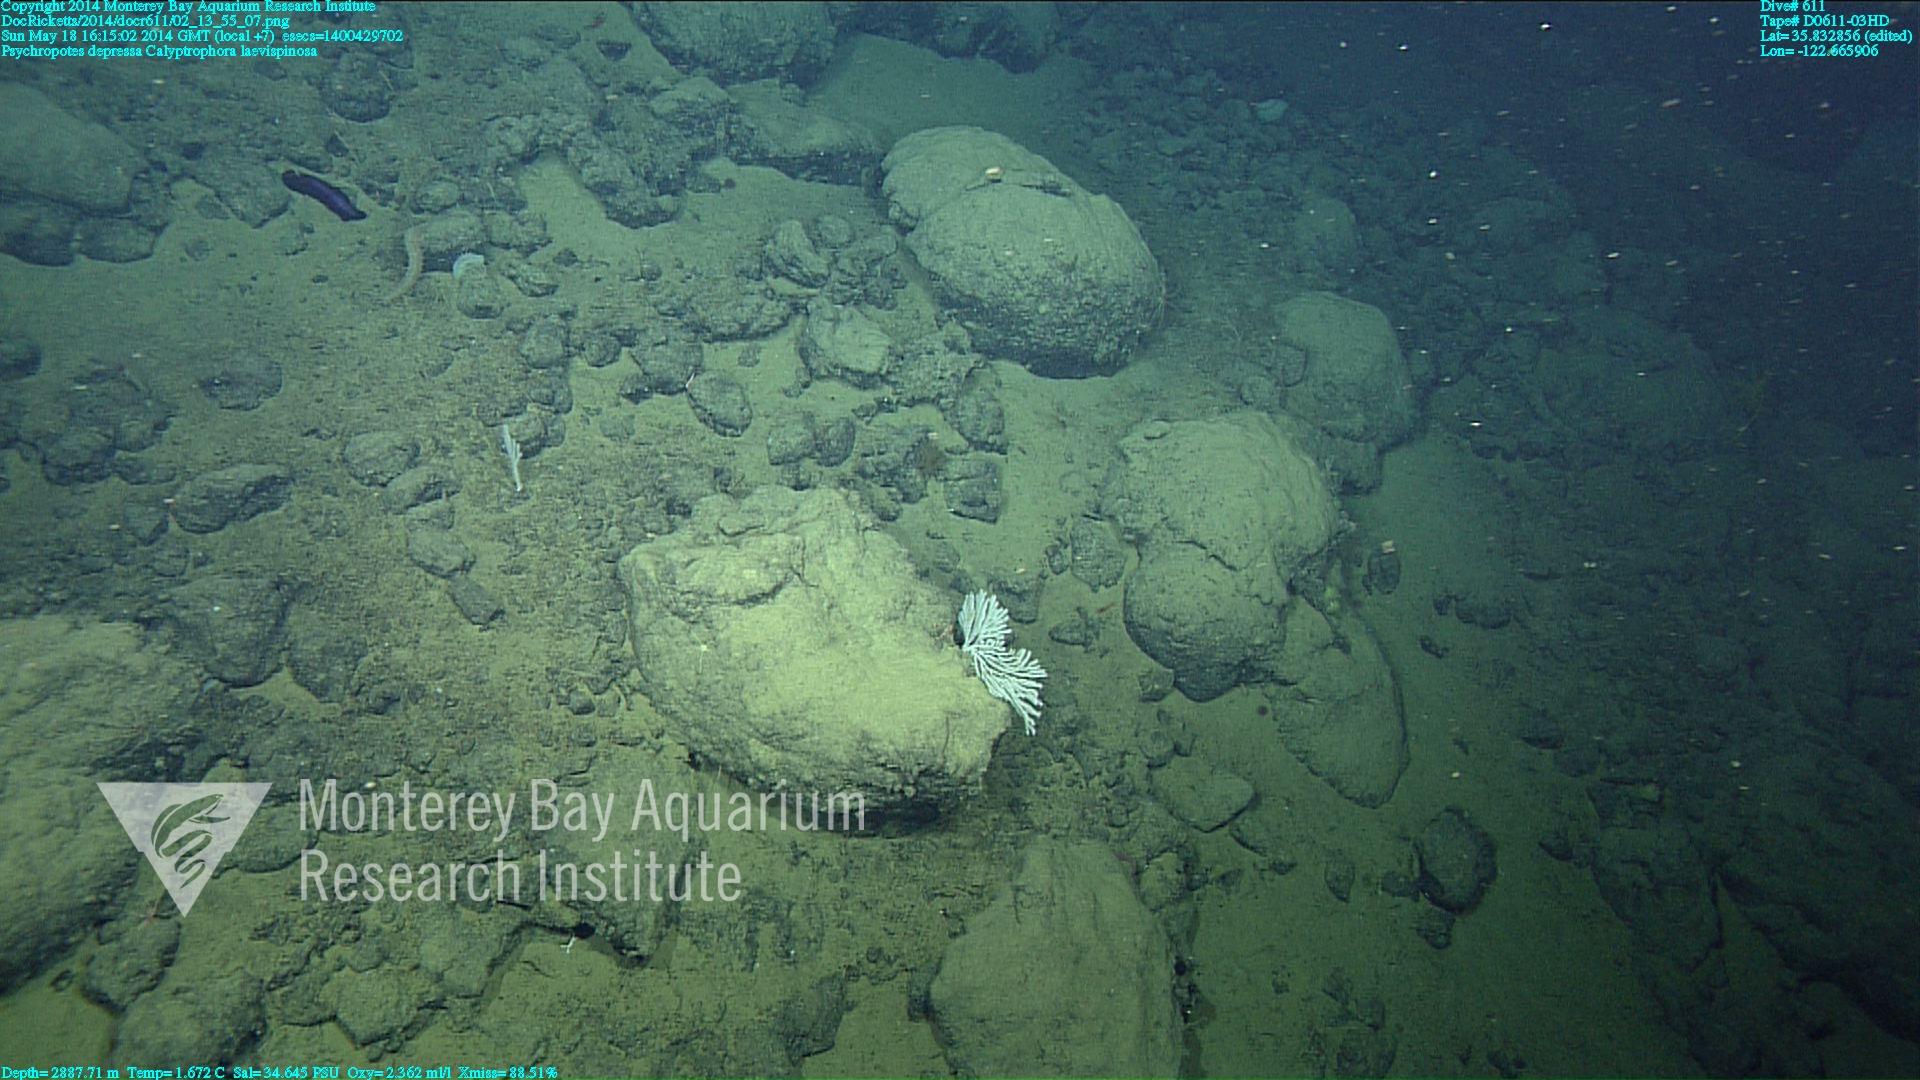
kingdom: Animalia
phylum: Cnidaria
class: Anthozoa
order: Scleralcyonacea
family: Primnoidae
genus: Calyptrophora
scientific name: Calyptrophora laevispinosa
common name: Smooth-spined tree coral
